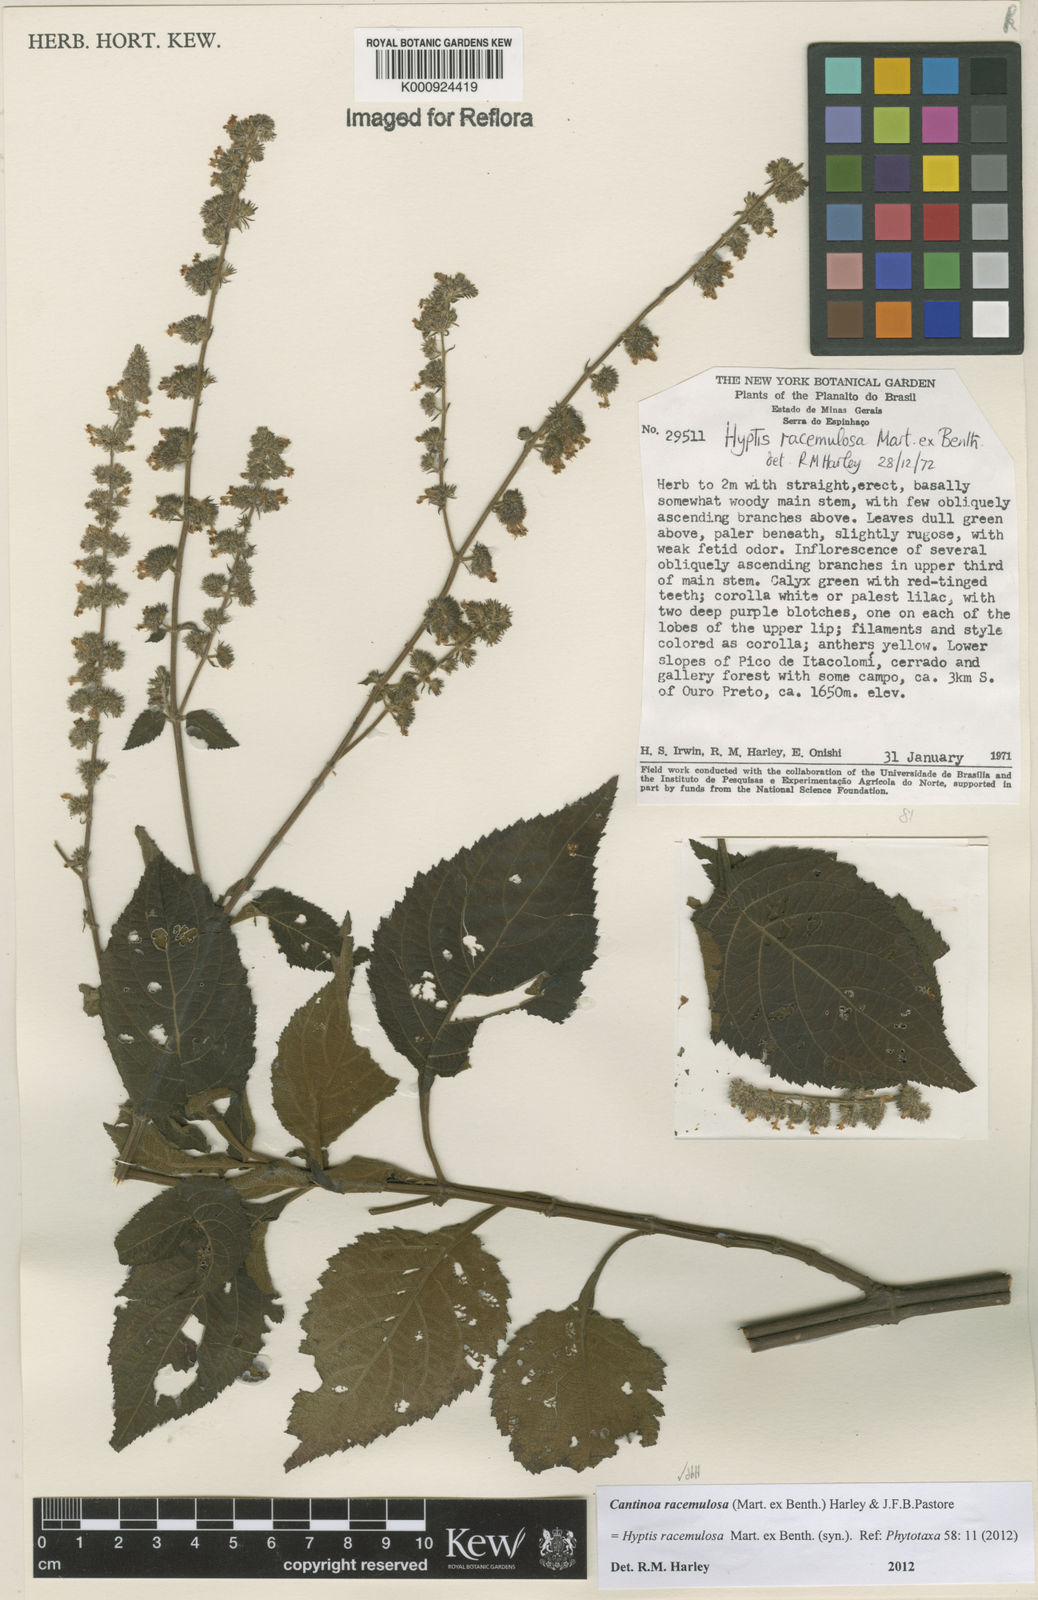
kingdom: Plantae
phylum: Tracheophyta
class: Magnoliopsida
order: Lamiales
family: Lamiaceae
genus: Cantinoa
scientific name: Cantinoa racemulosa
